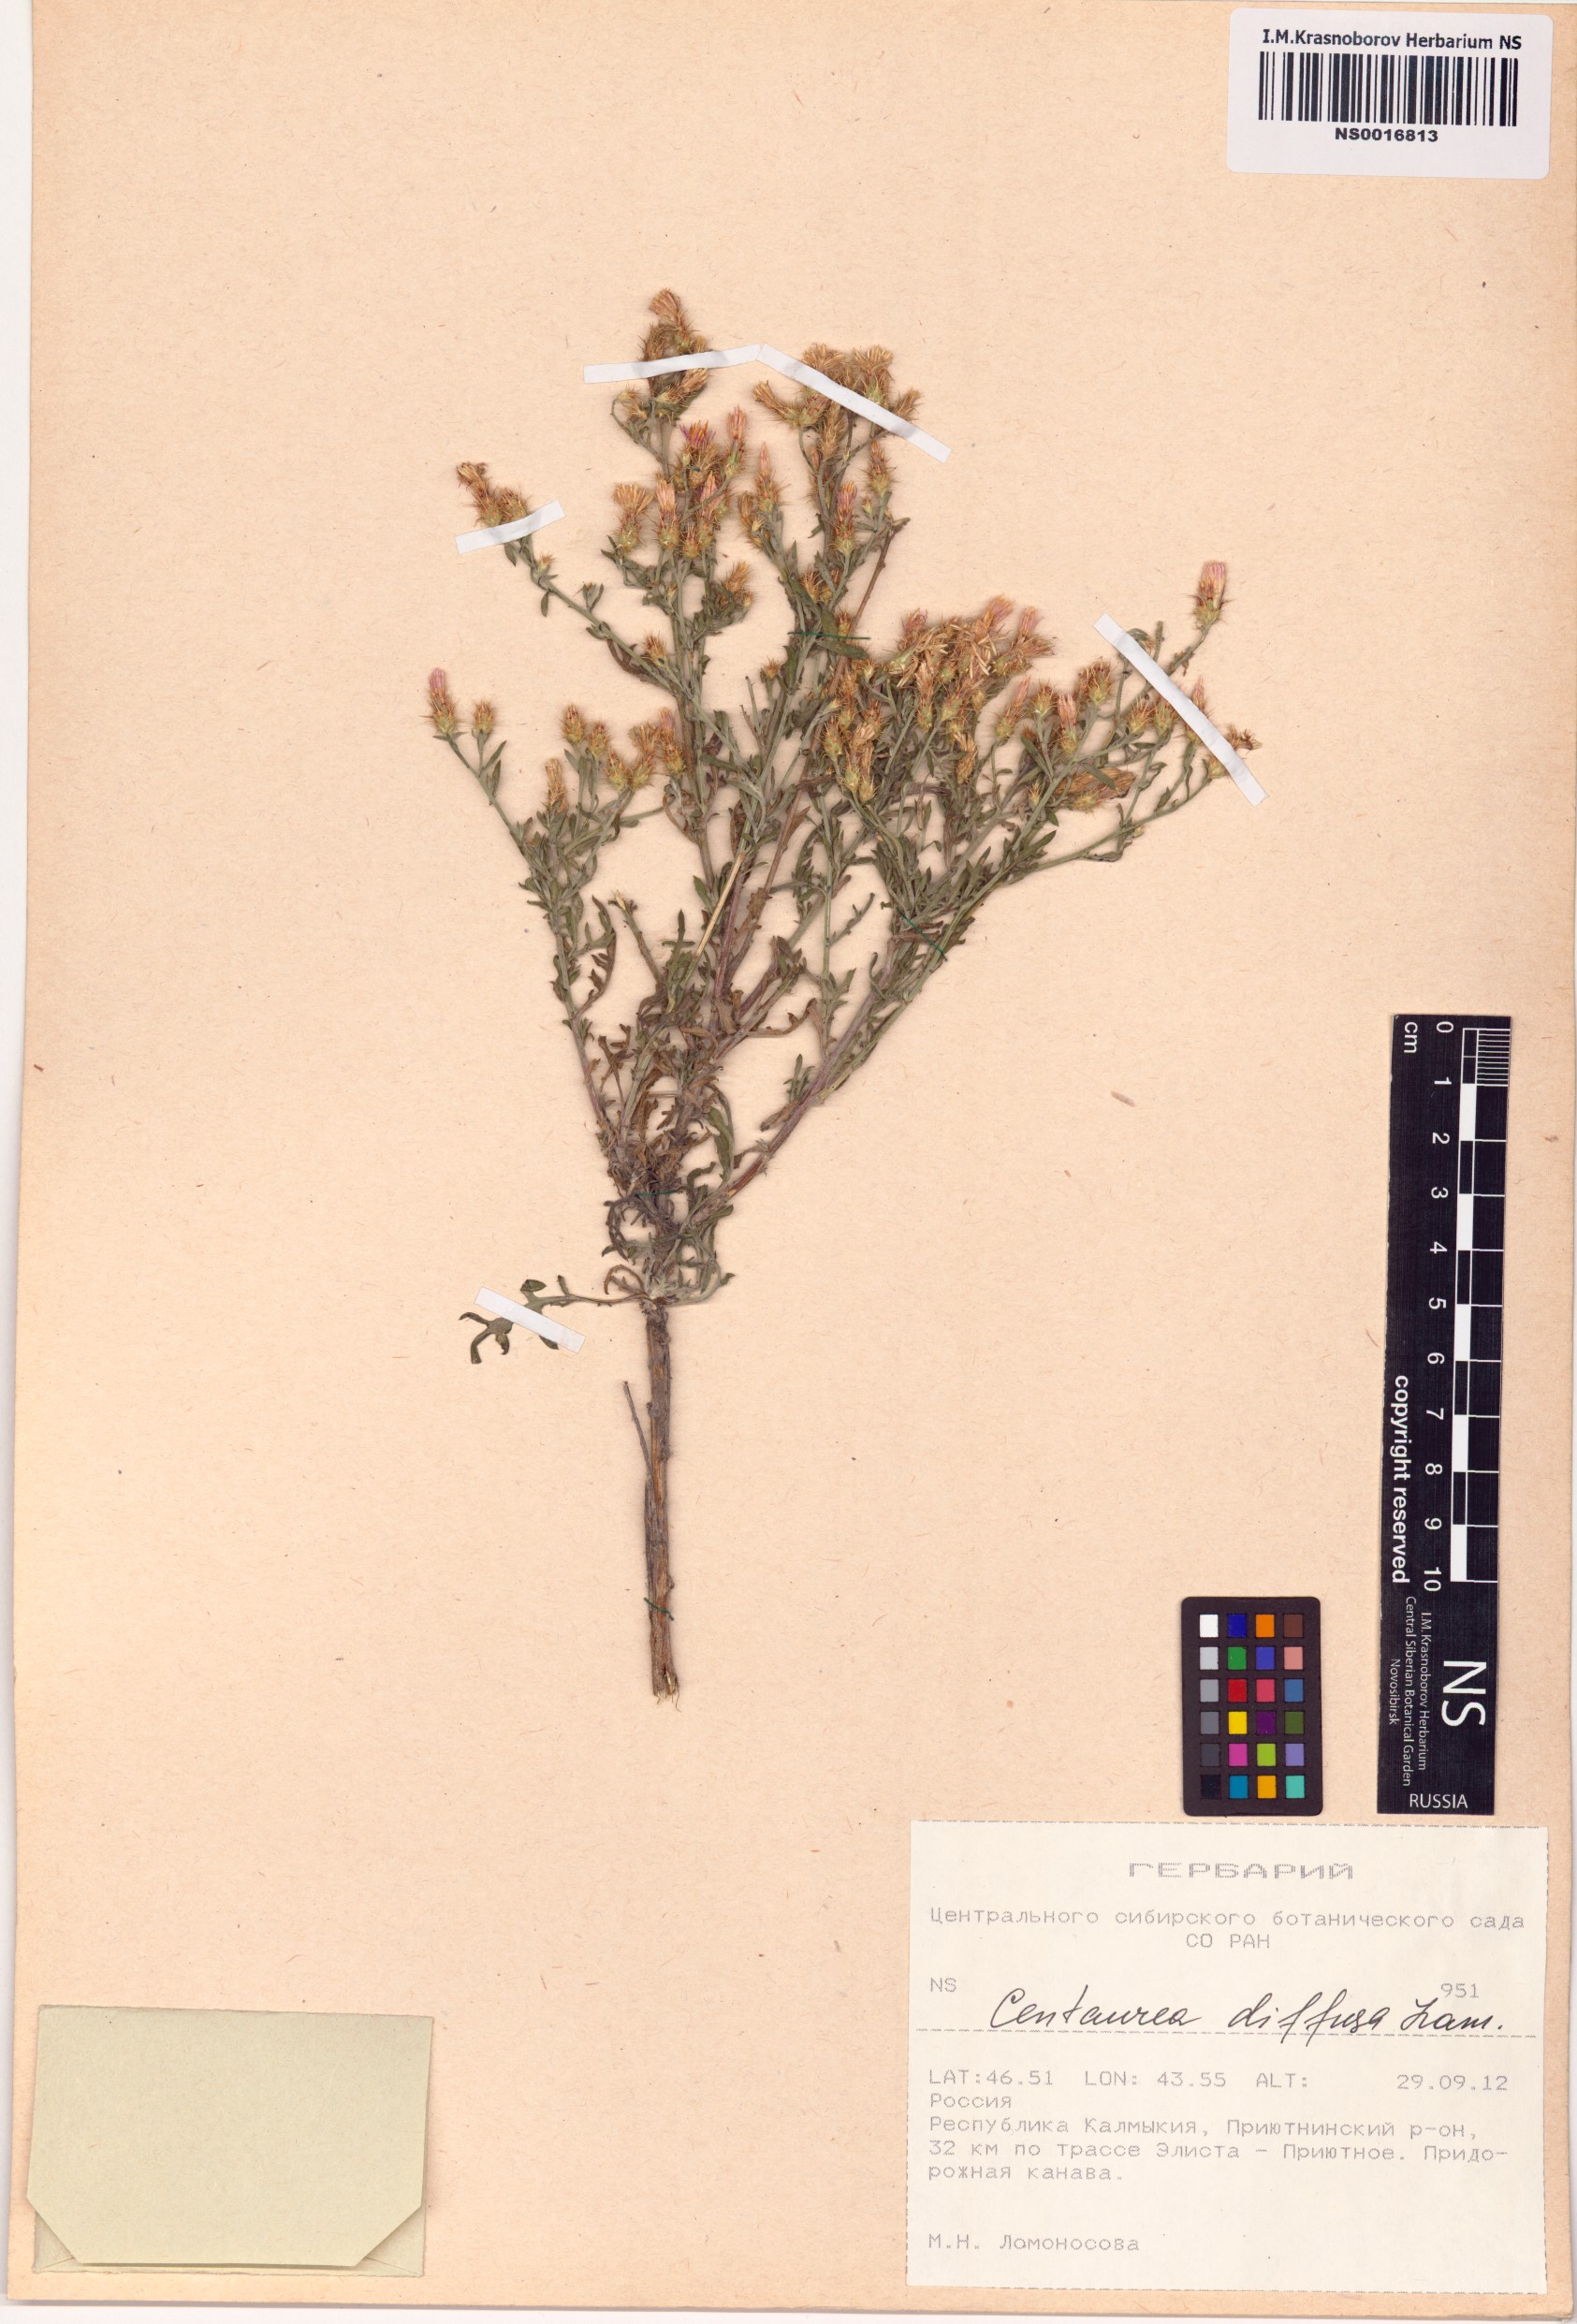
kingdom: Plantae
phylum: Tracheophyta
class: Magnoliopsida
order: Asterales
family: Asteraceae
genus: Centaurea
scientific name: Centaurea diffusa
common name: Diffuse knapweed
